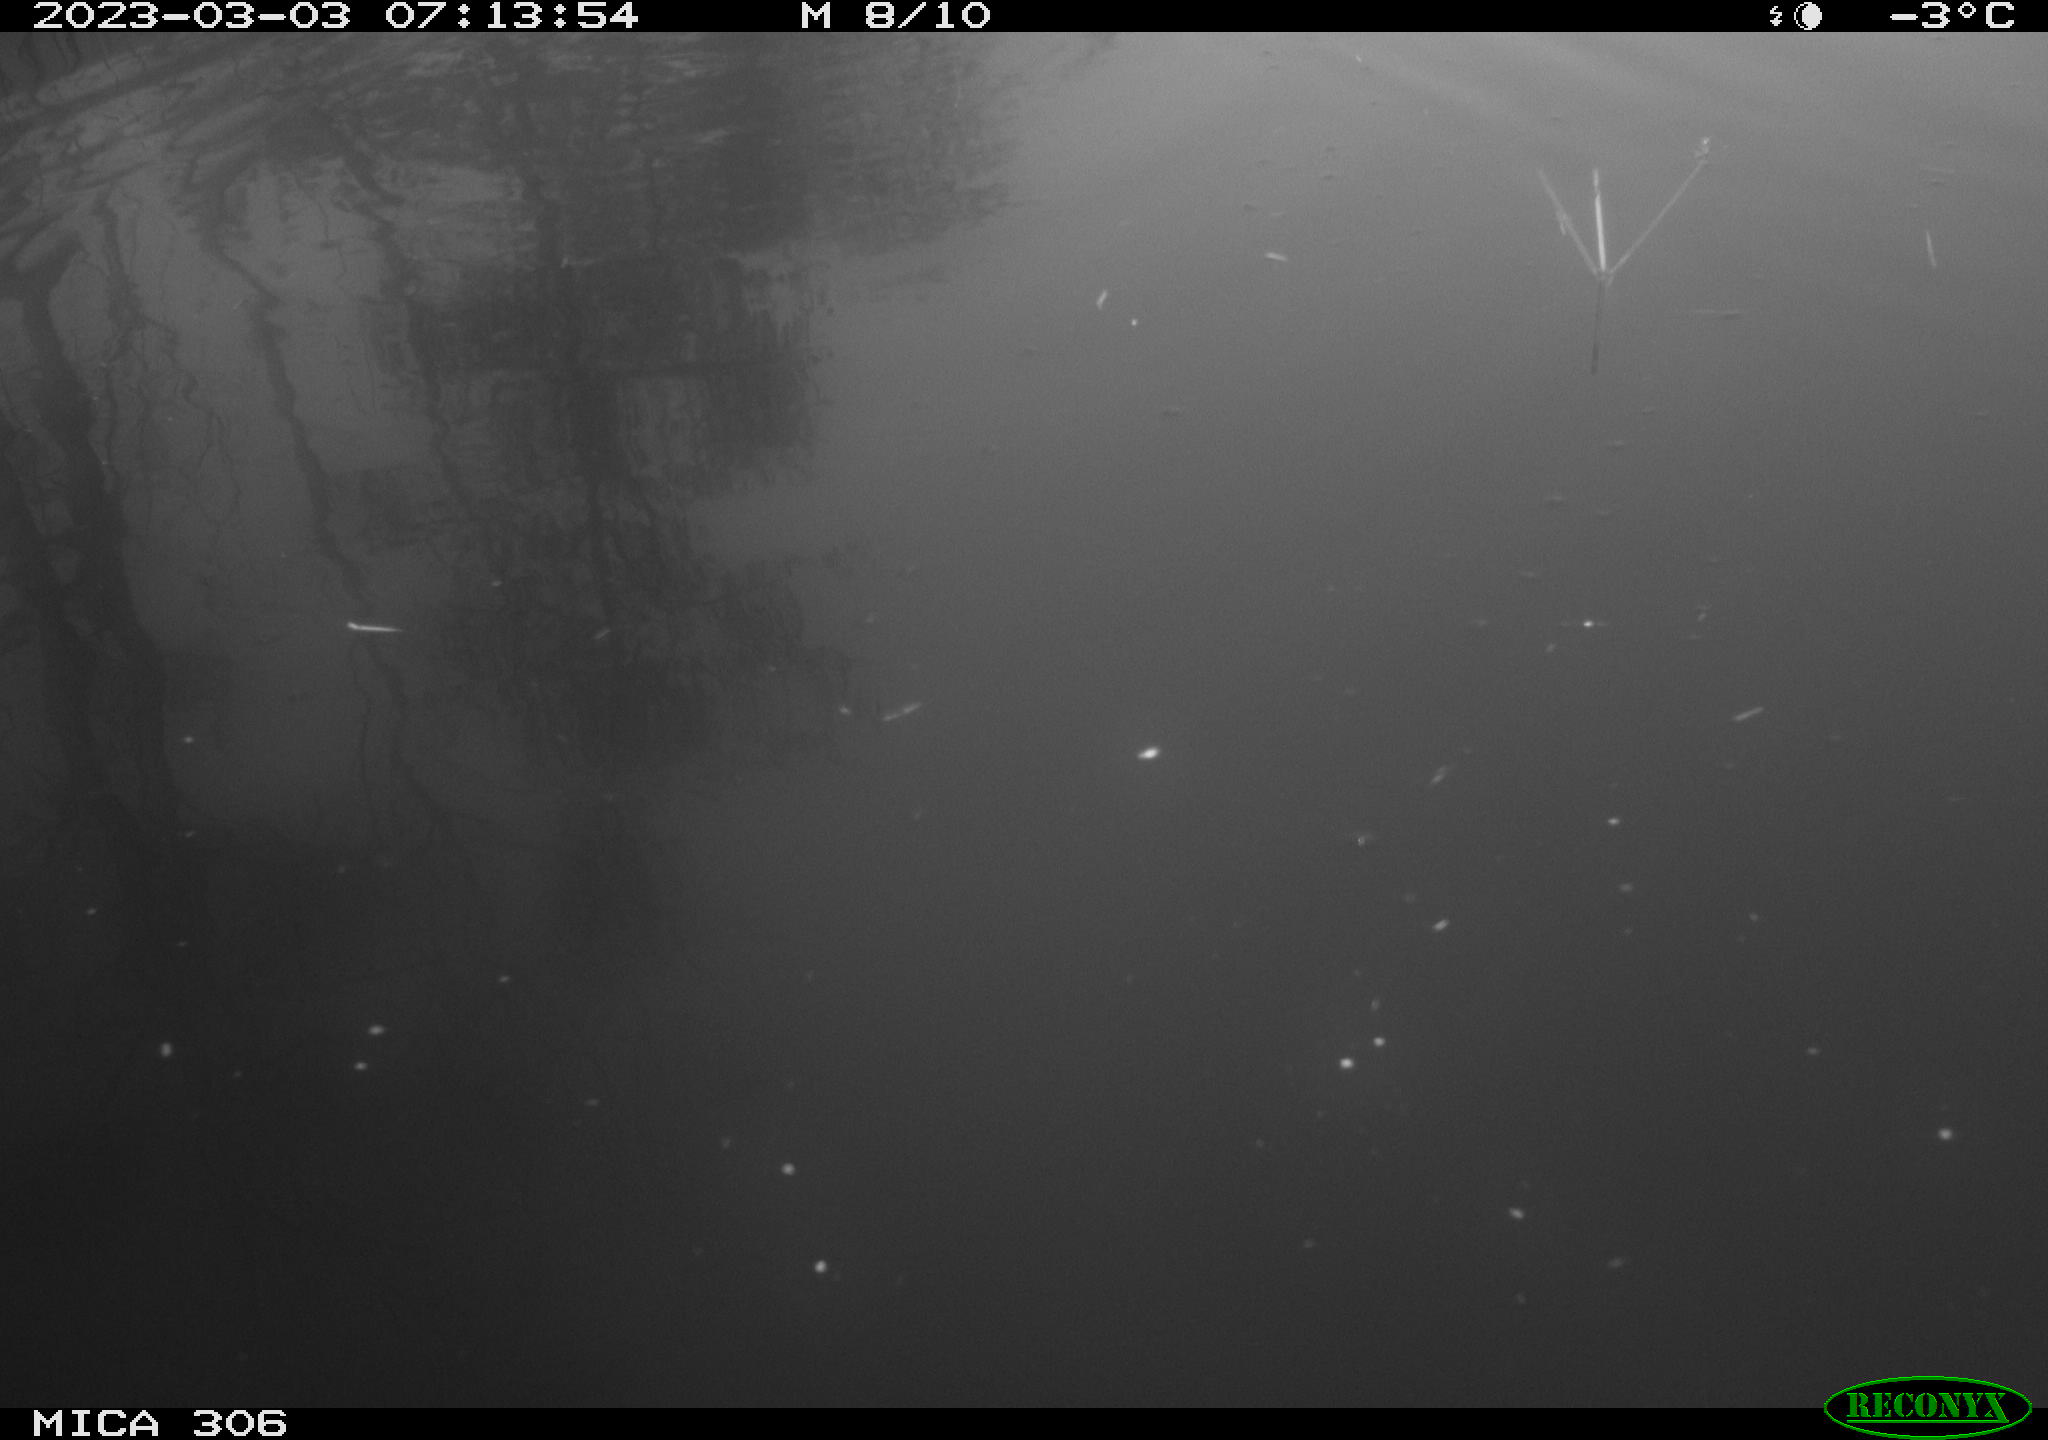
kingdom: Animalia
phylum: Chordata
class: Aves
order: Gruiformes
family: Rallidae
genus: Gallinula
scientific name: Gallinula chloropus
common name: Common moorhen
